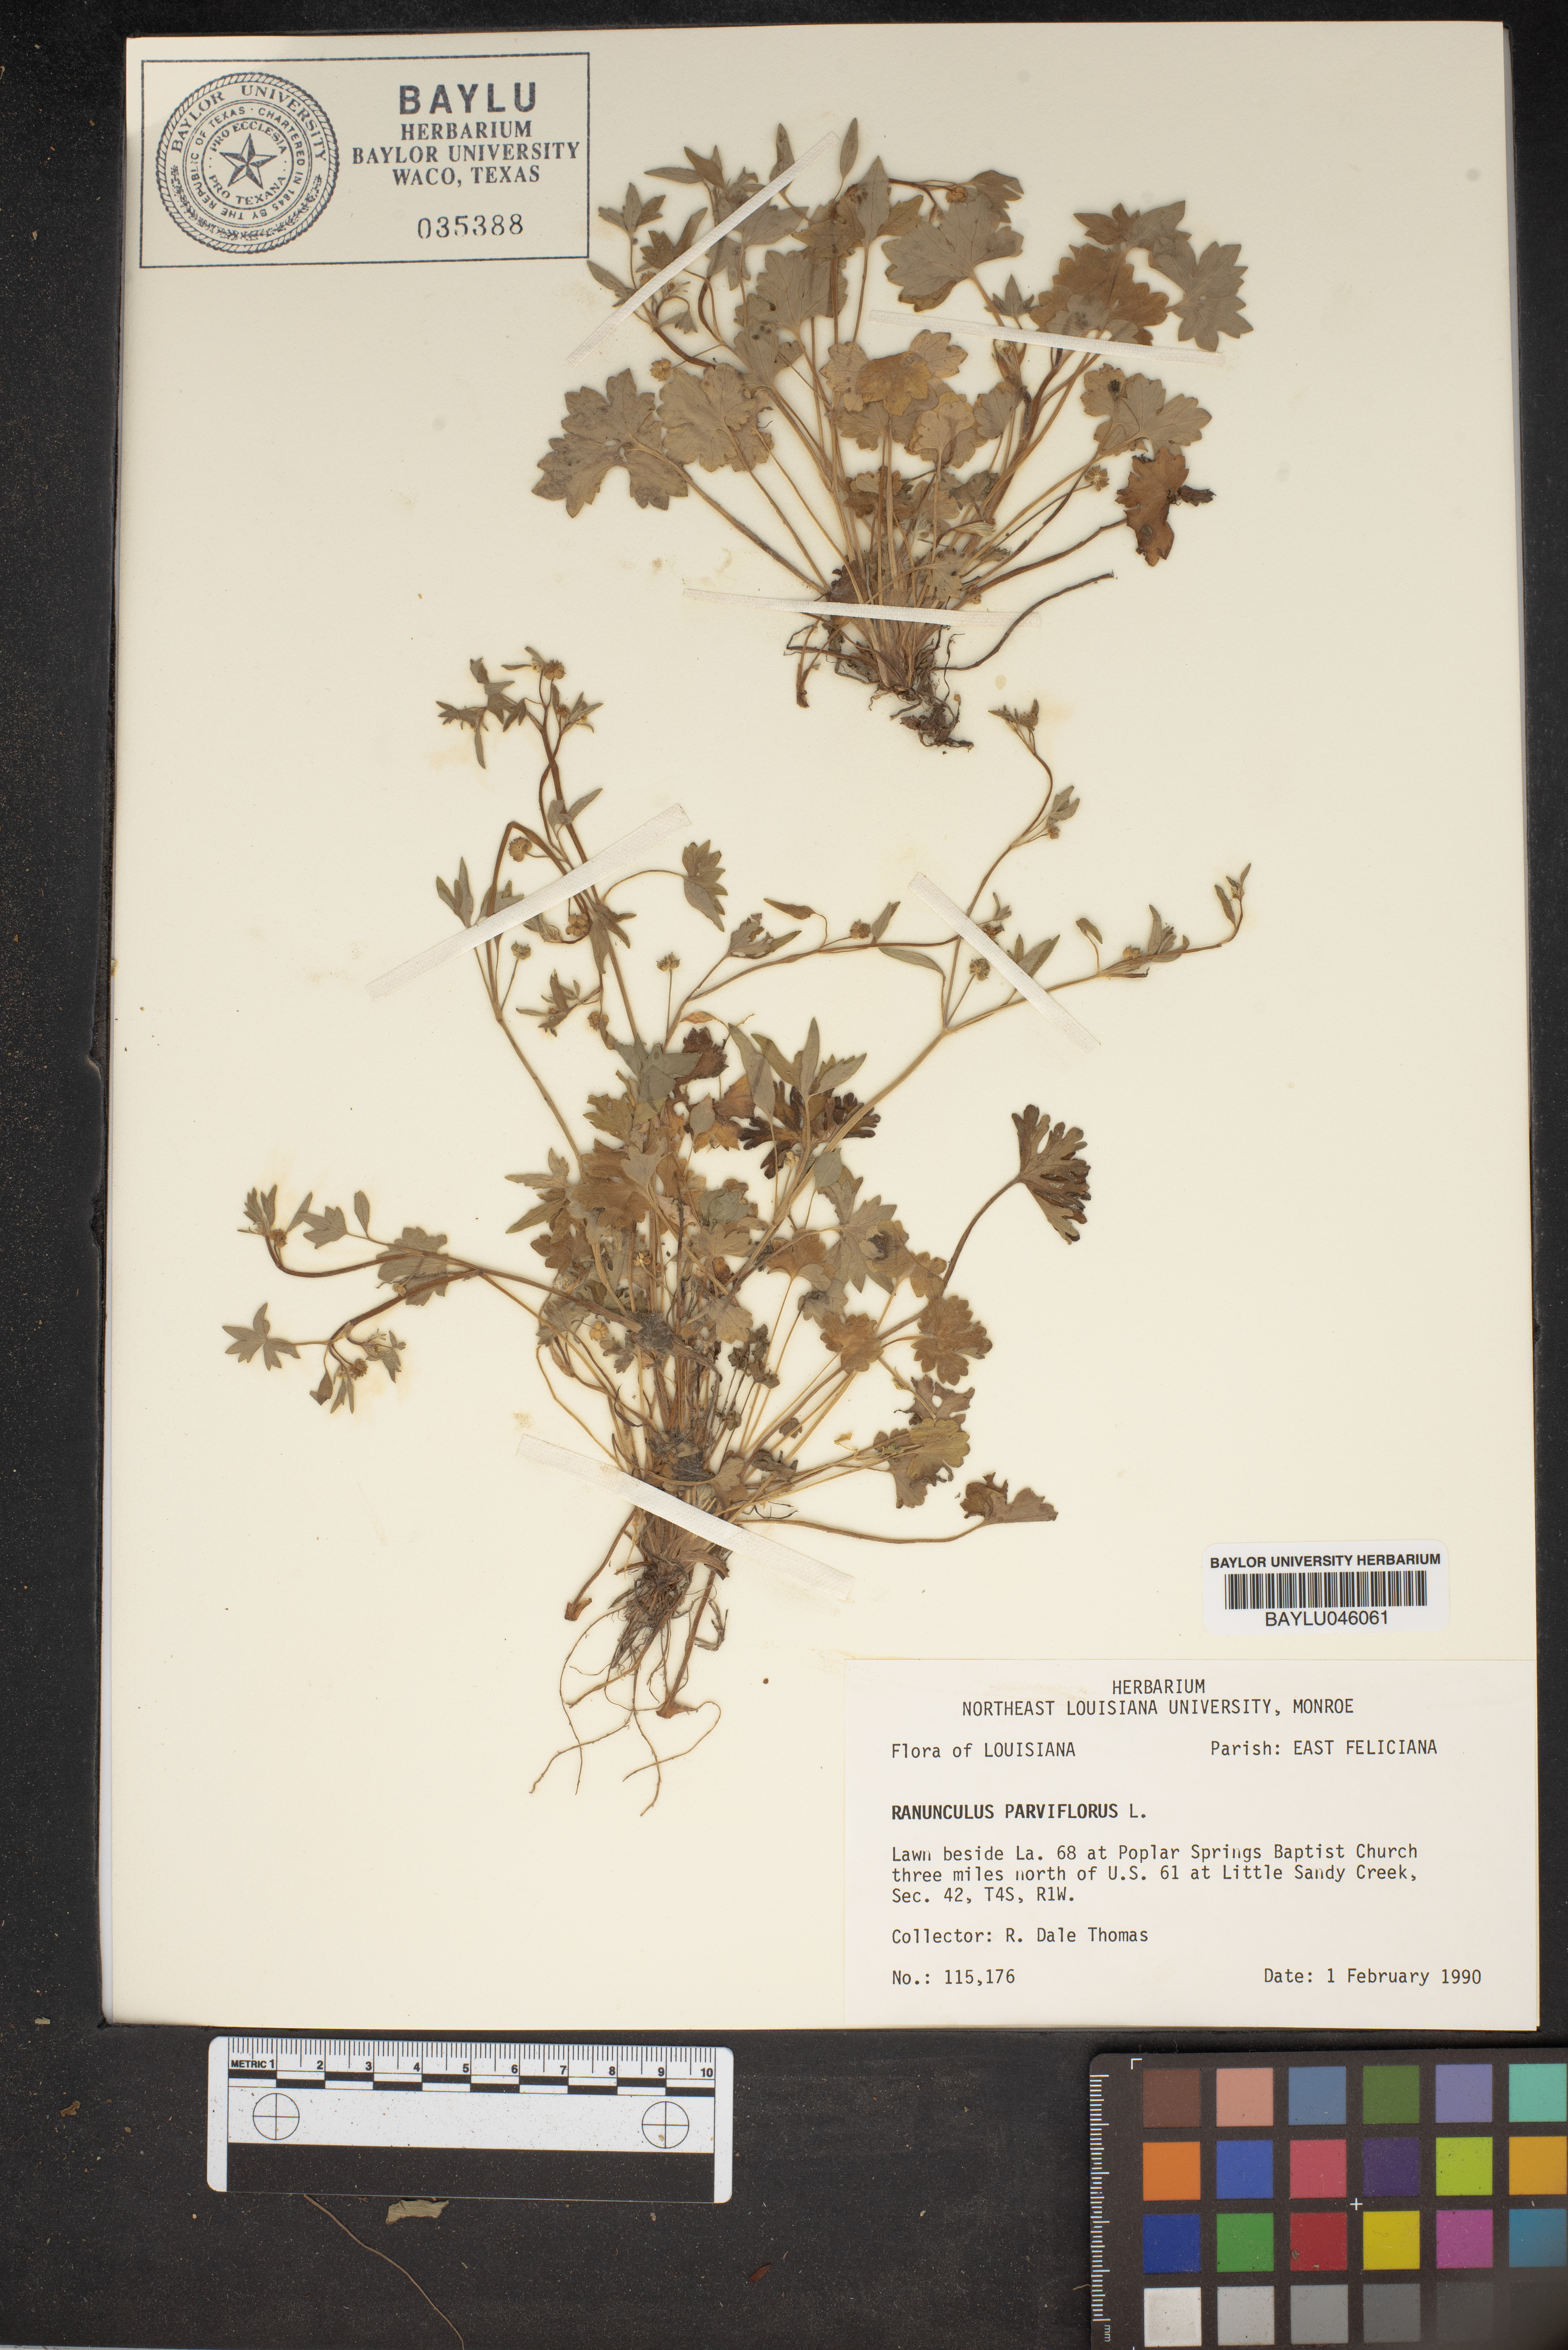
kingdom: Plantae
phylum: Tracheophyta
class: Magnoliopsida
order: Ranunculales
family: Ranunculaceae
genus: Ranunculus
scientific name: Ranunculus parviflorus
